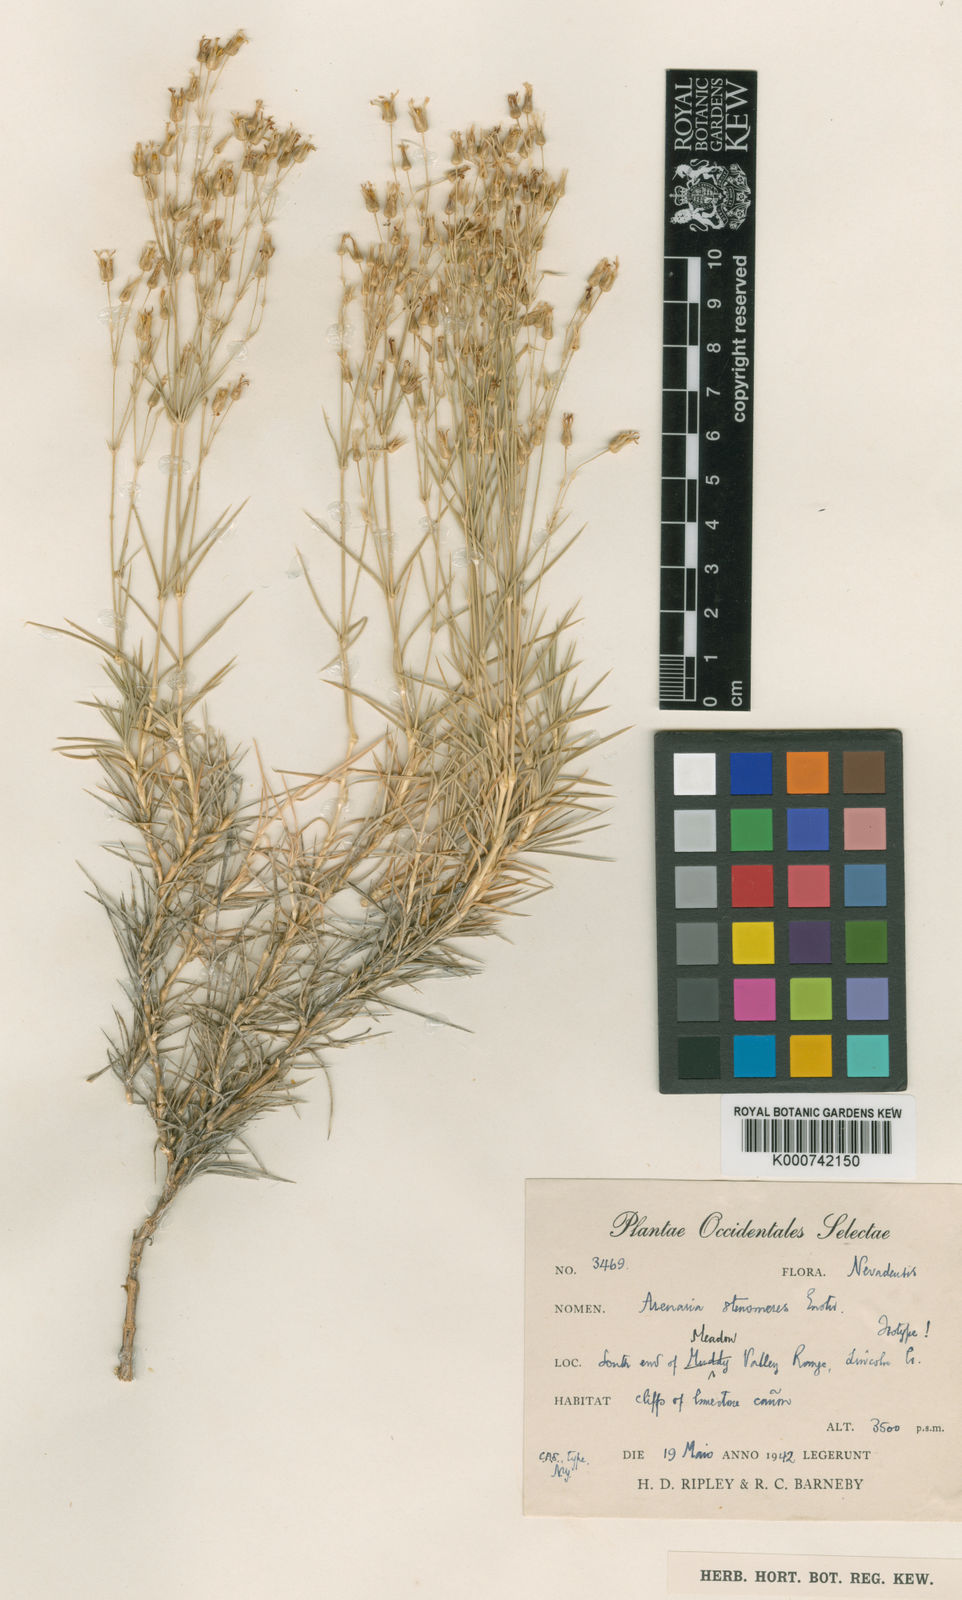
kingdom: Plantae
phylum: Tracheophyta
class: Magnoliopsida
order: Caryophyllales
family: Caryophyllaceae
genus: Eremogone
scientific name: Eremogone stenomeres
